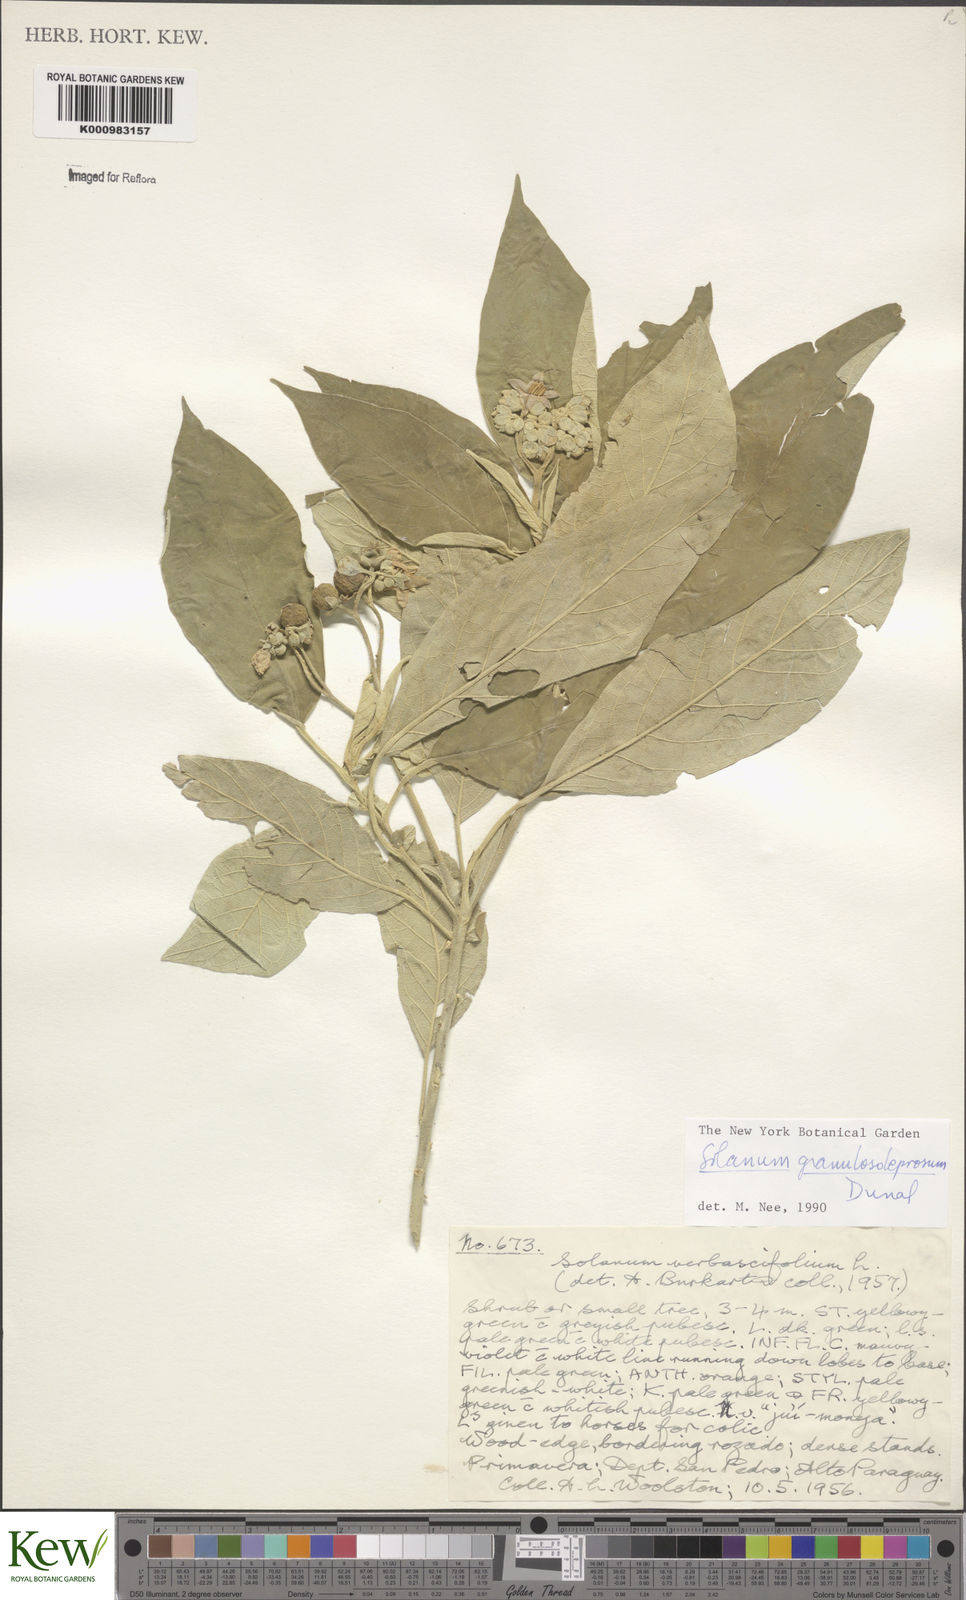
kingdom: Plantae
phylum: Tracheophyta
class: Magnoliopsida
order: Solanales
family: Solanaceae
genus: Solanum
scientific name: Solanum granulosoleprosum
